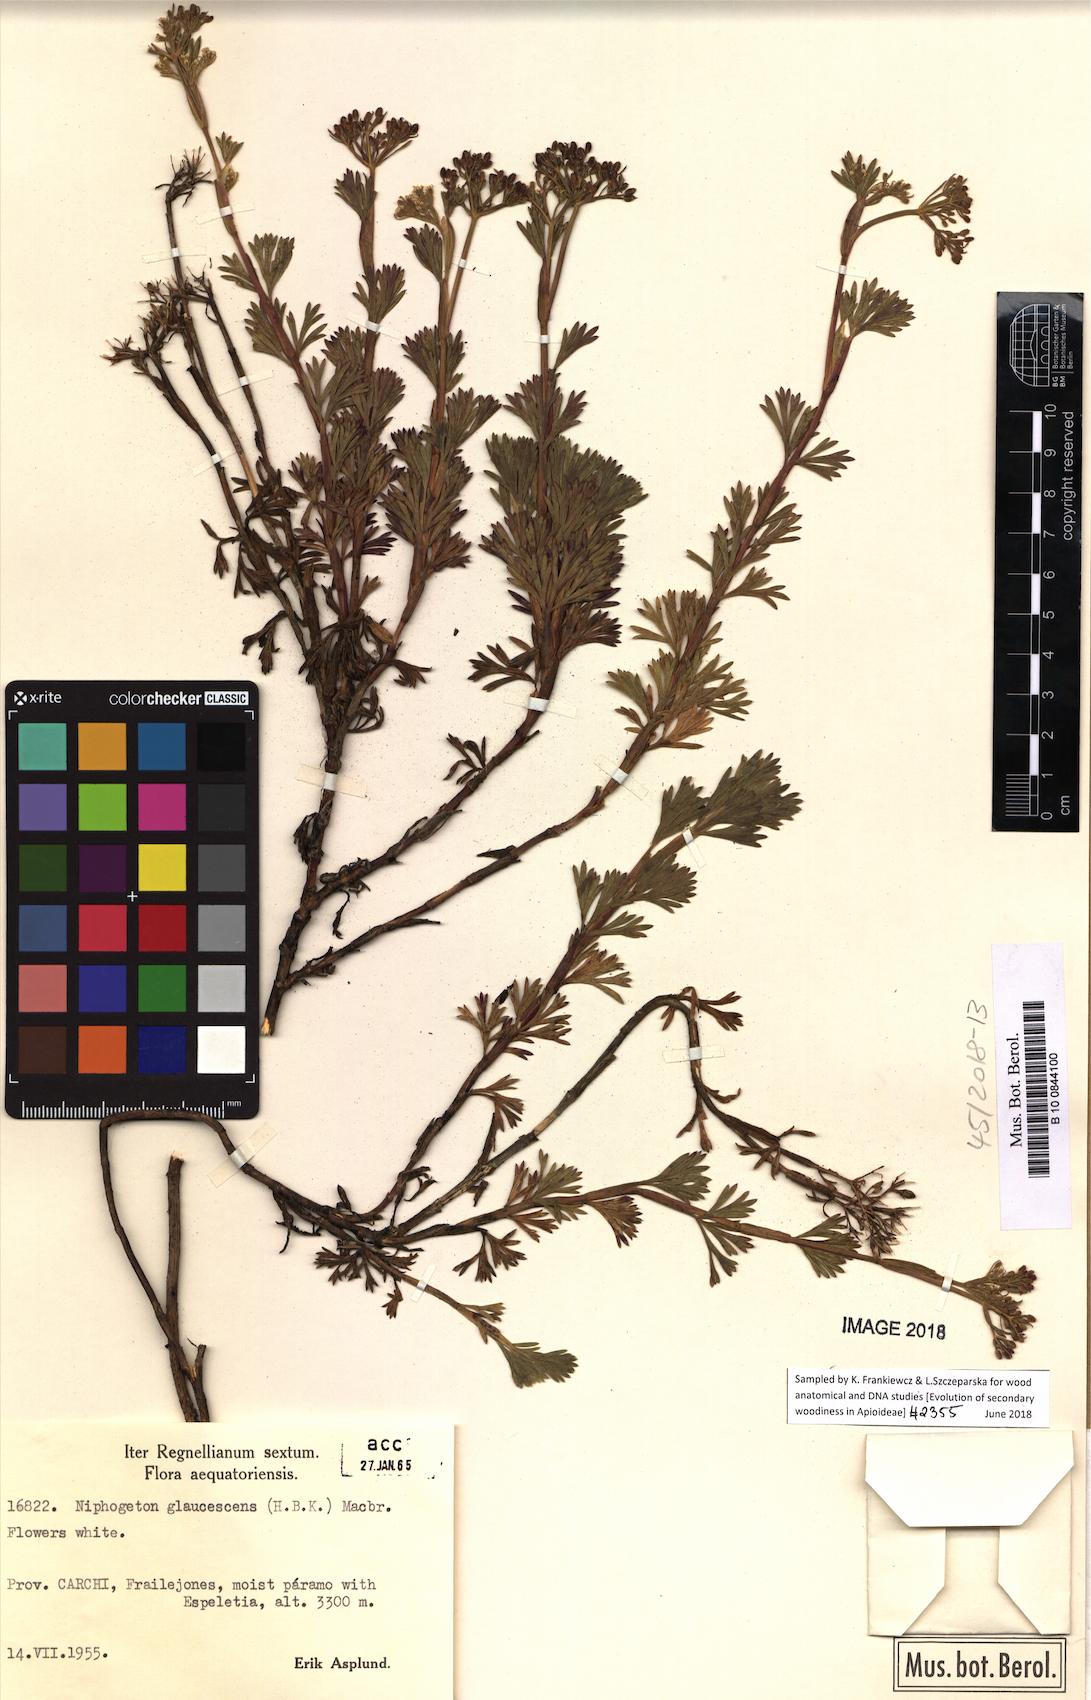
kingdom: Plantae
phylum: Tracheophyta
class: Magnoliopsida
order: Apiales
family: Apiaceae
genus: Niphogeton
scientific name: Niphogeton glaucescens
